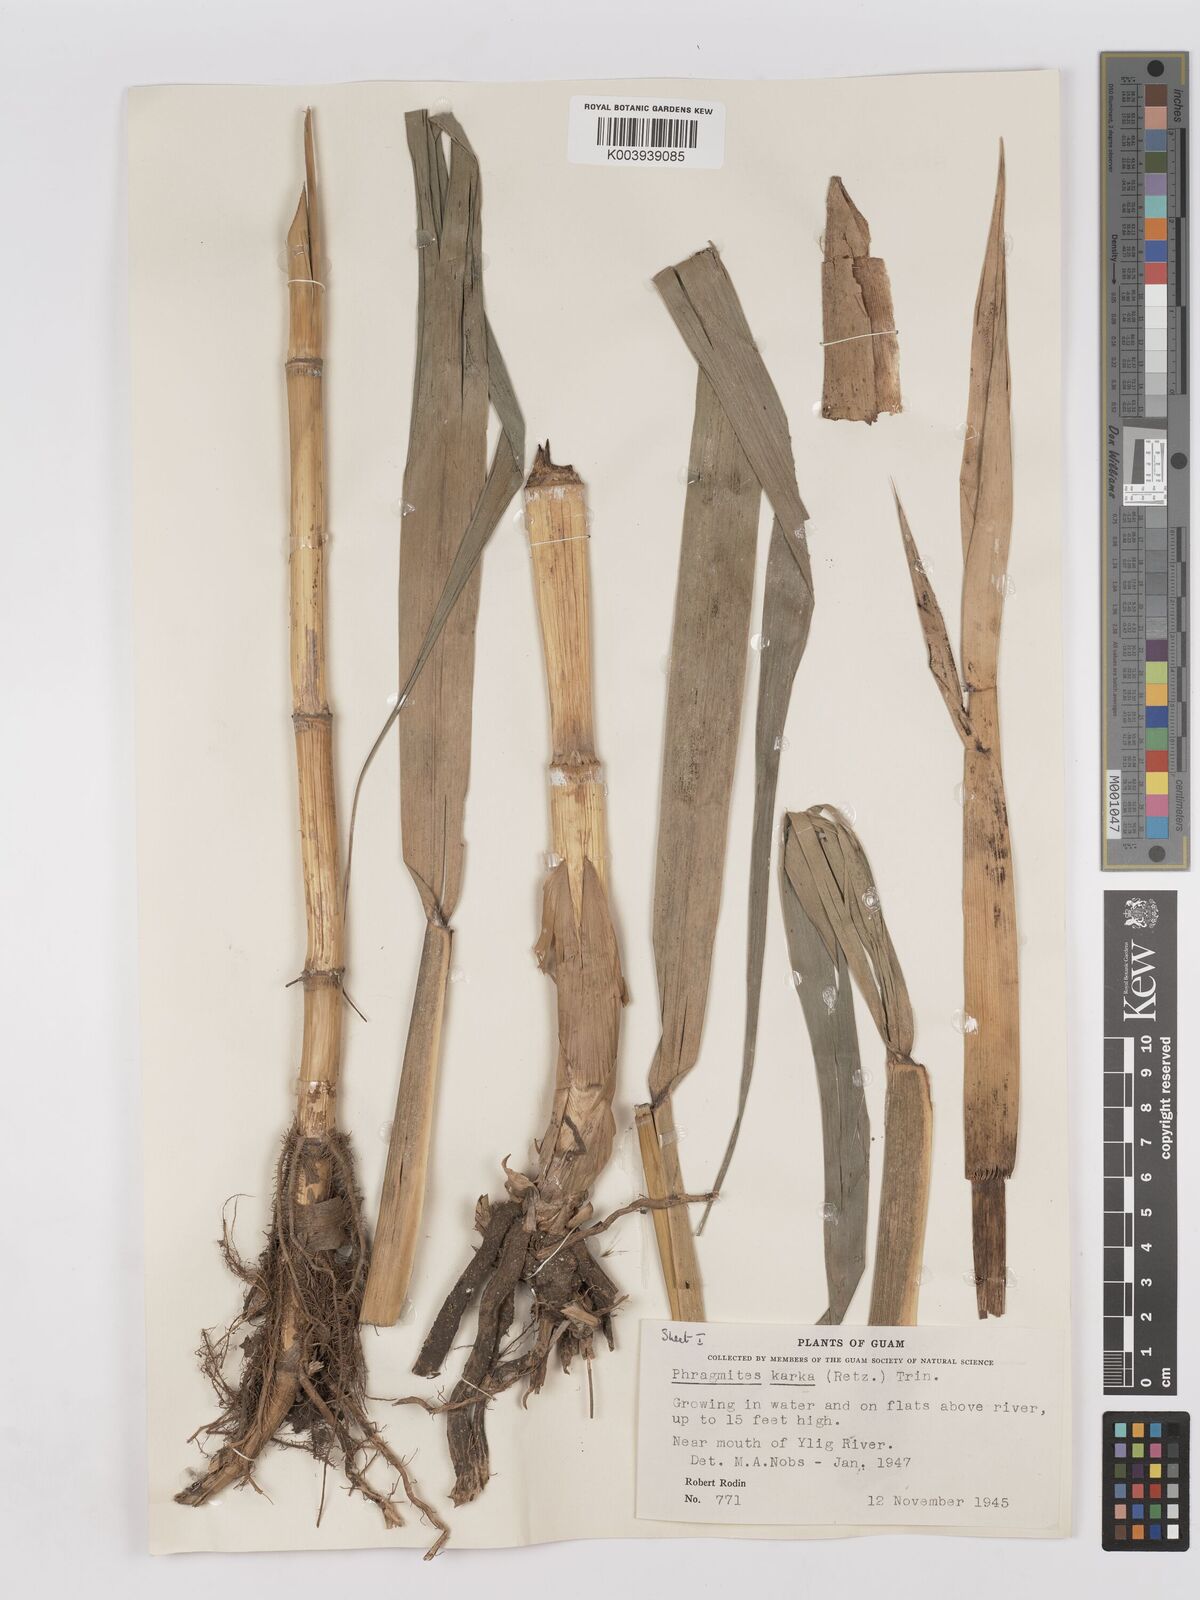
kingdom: Plantae
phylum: Tracheophyta
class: Liliopsida
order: Poales
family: Poaceae
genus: Phragmites
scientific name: Phragmites karka
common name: Tropical reed
